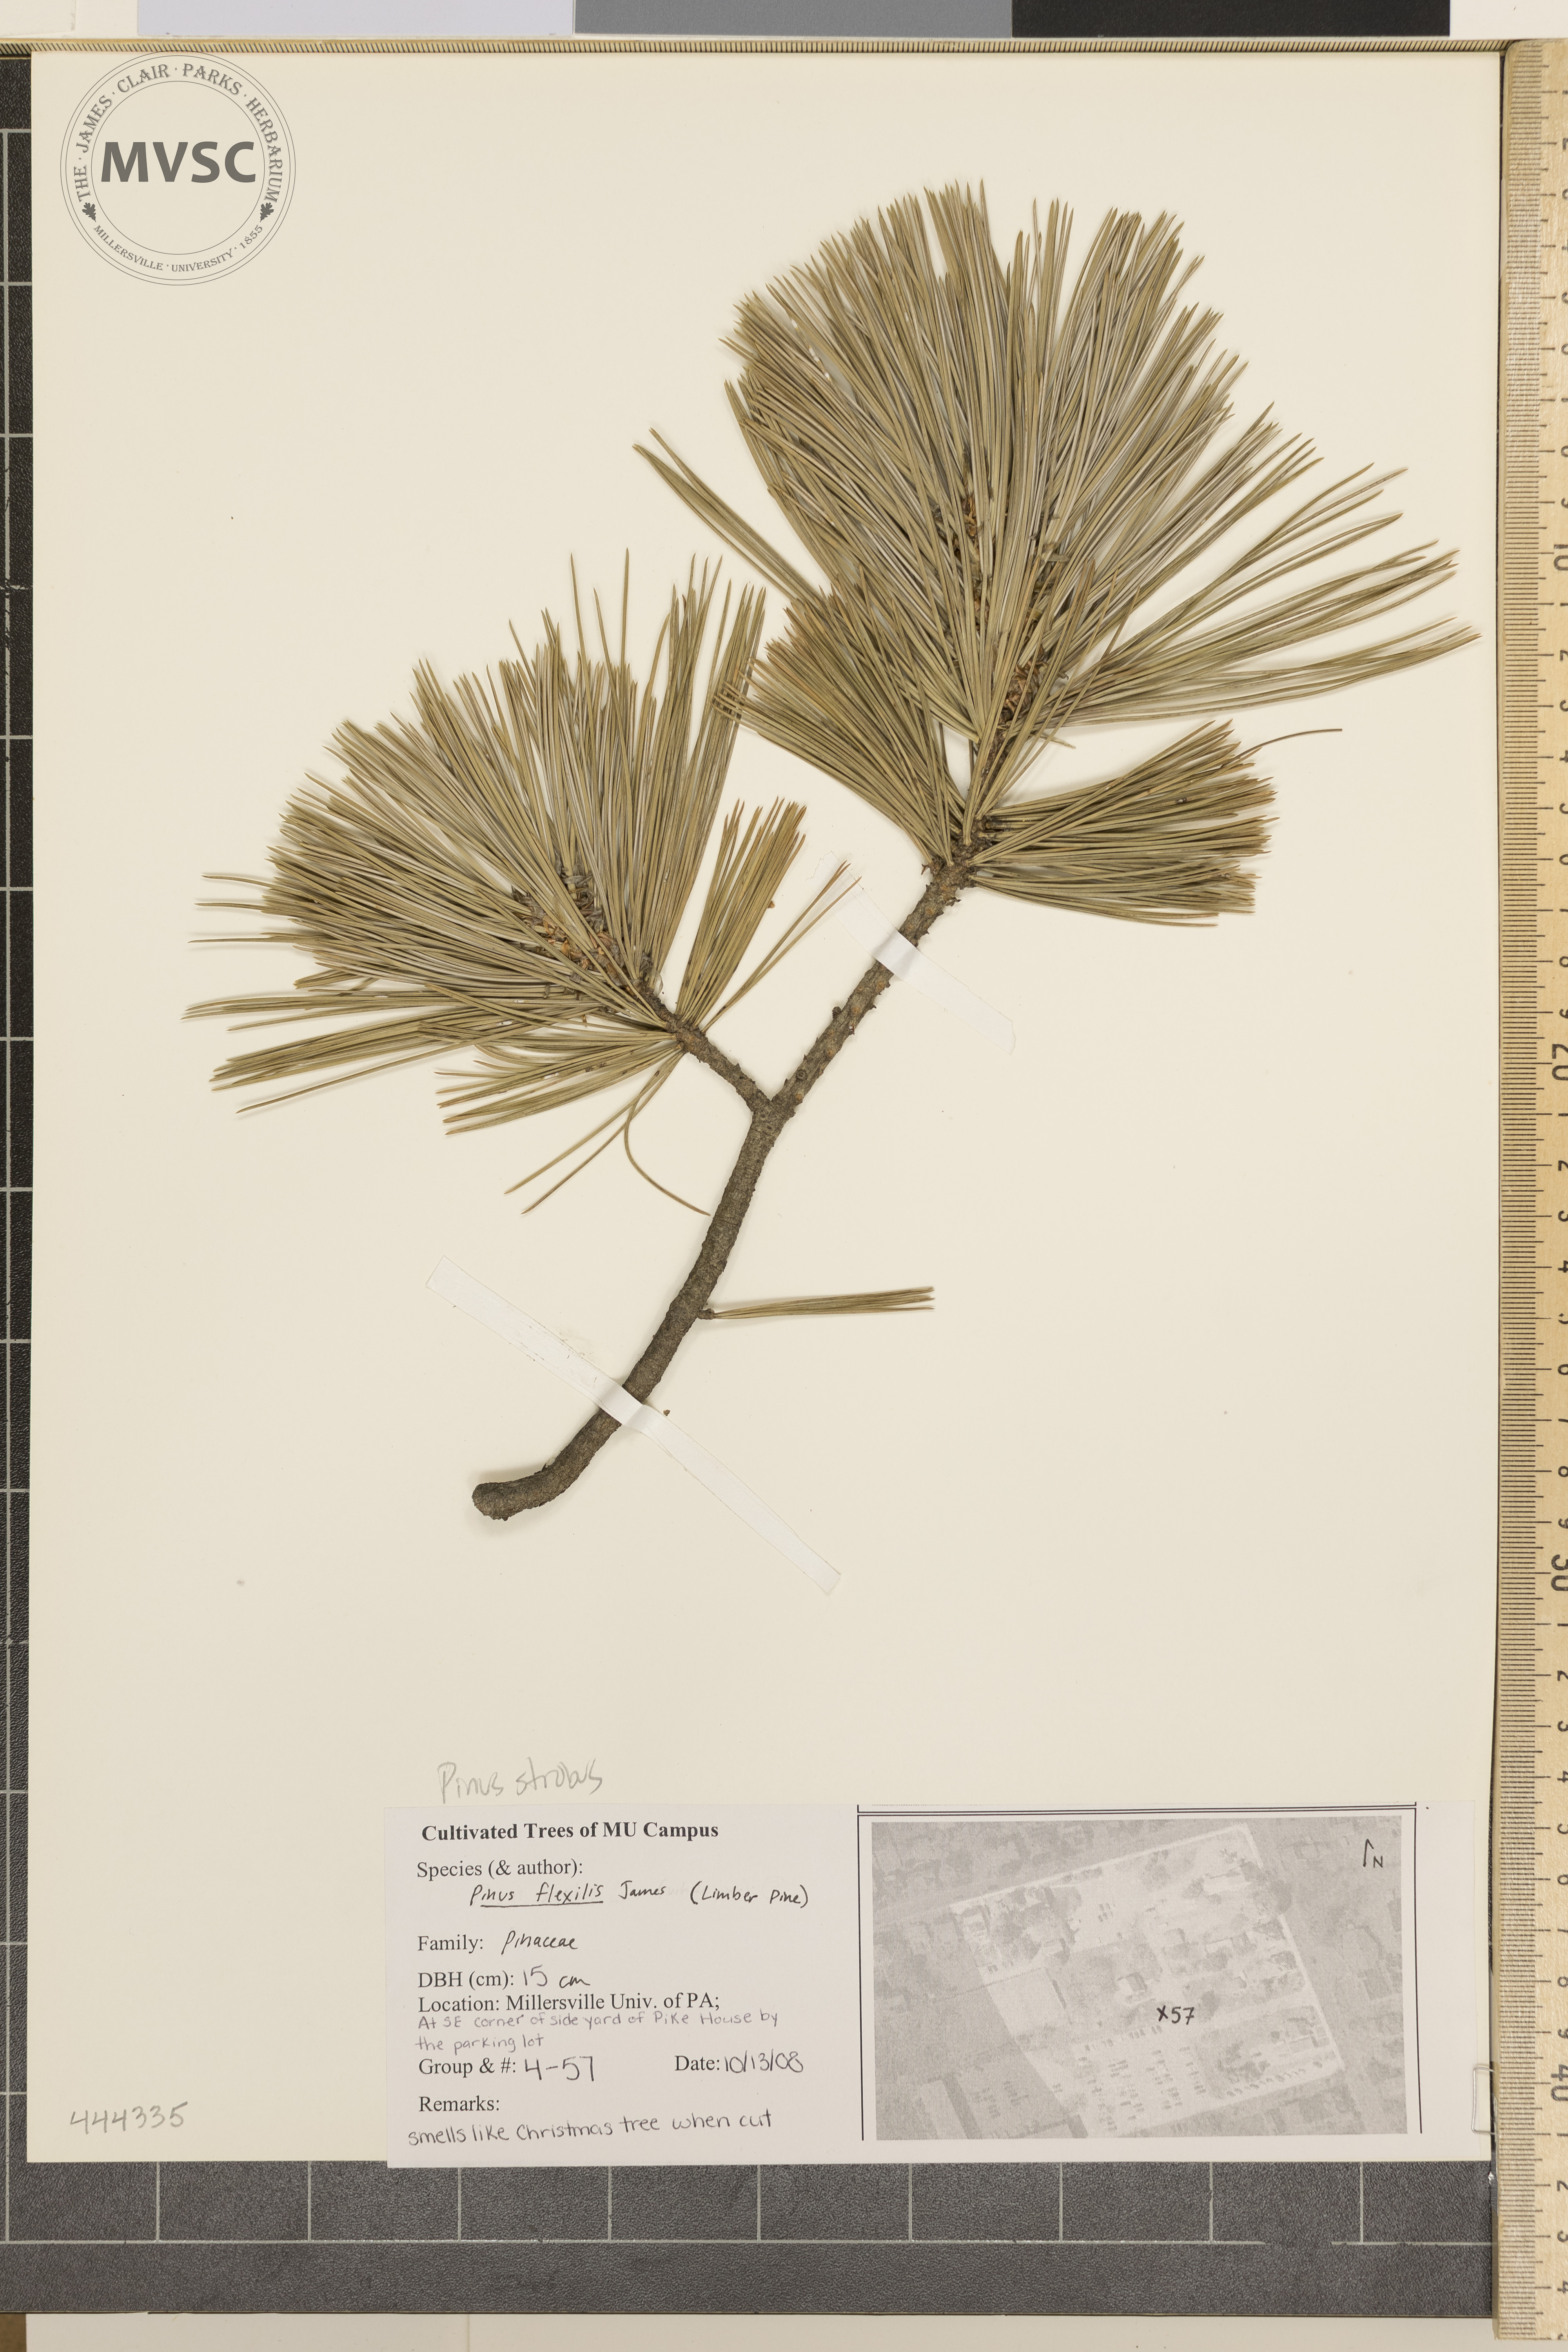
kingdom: Plantae
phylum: Tracheophyta
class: Pinopsida
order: Pinales
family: Pinaceae
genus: Pinus
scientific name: Pinus strobus
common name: Weymouth pine
